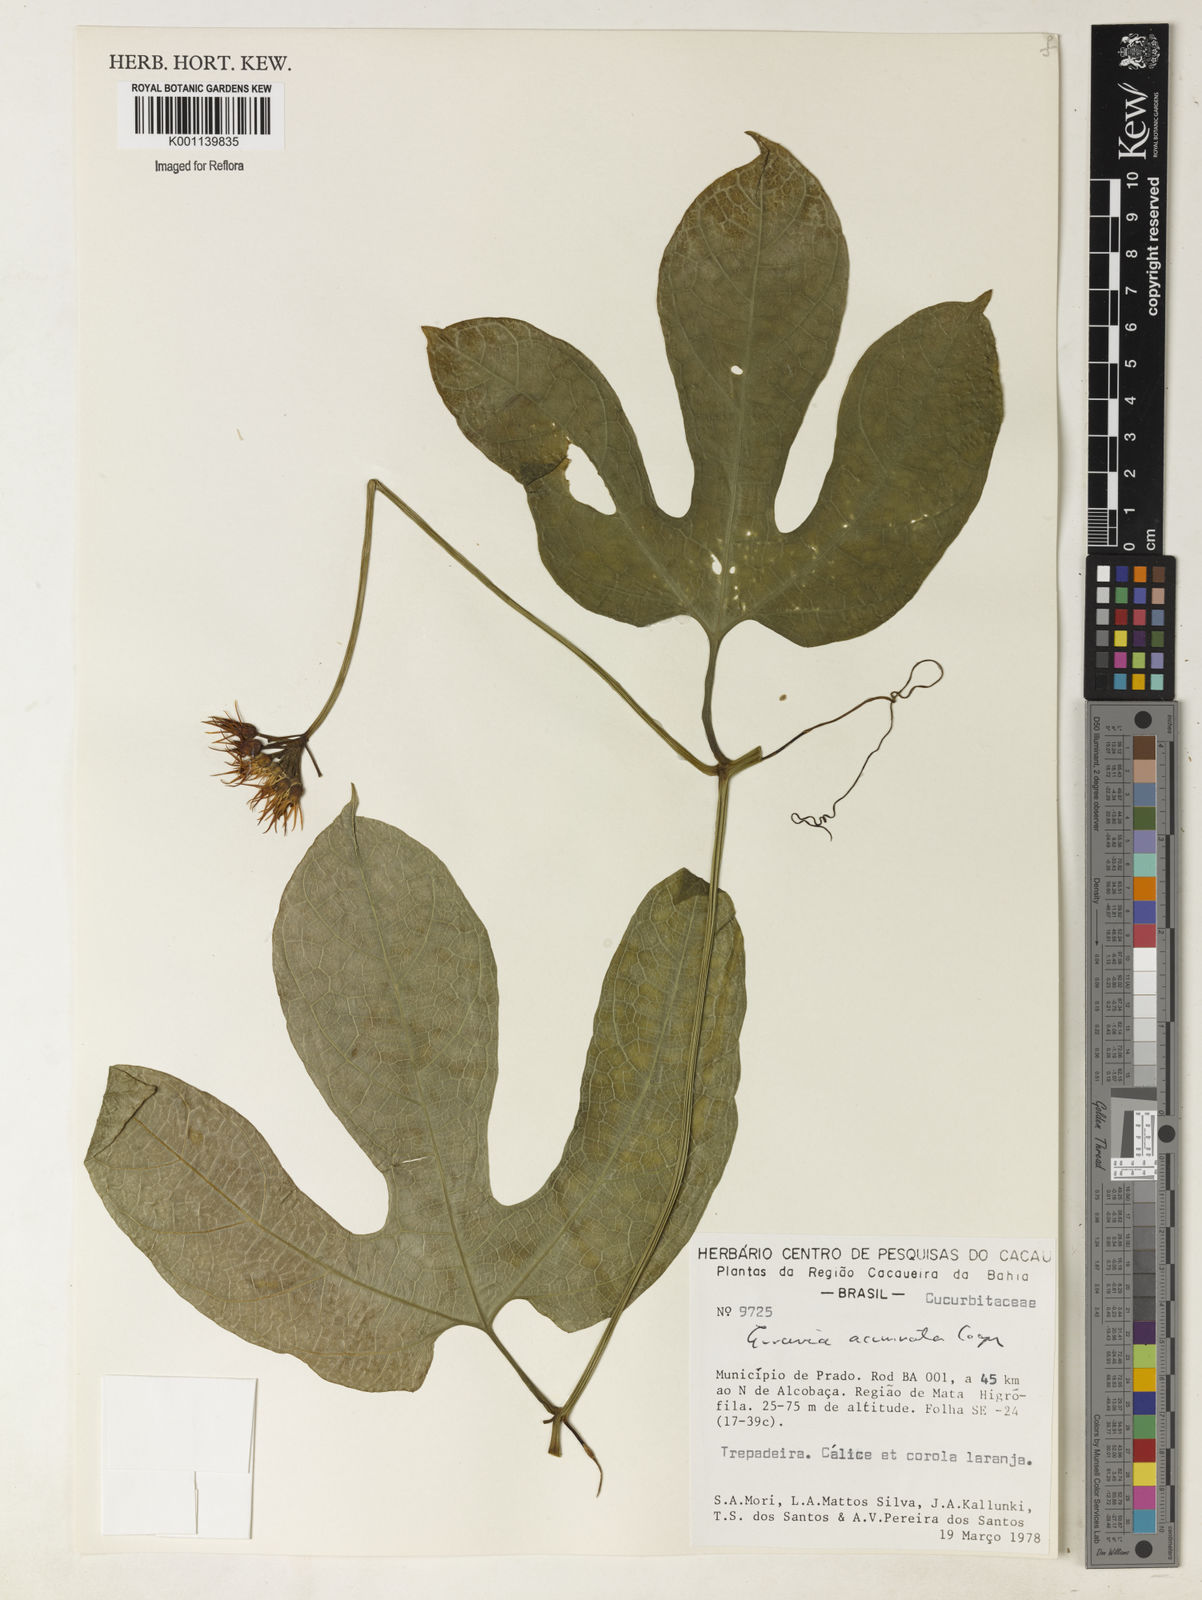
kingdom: Plantae
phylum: Tracheophyta
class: Magnoliopsida
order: Cucurbitales
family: Cucurbitaceae
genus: Gurania
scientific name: Gurania acuminata
